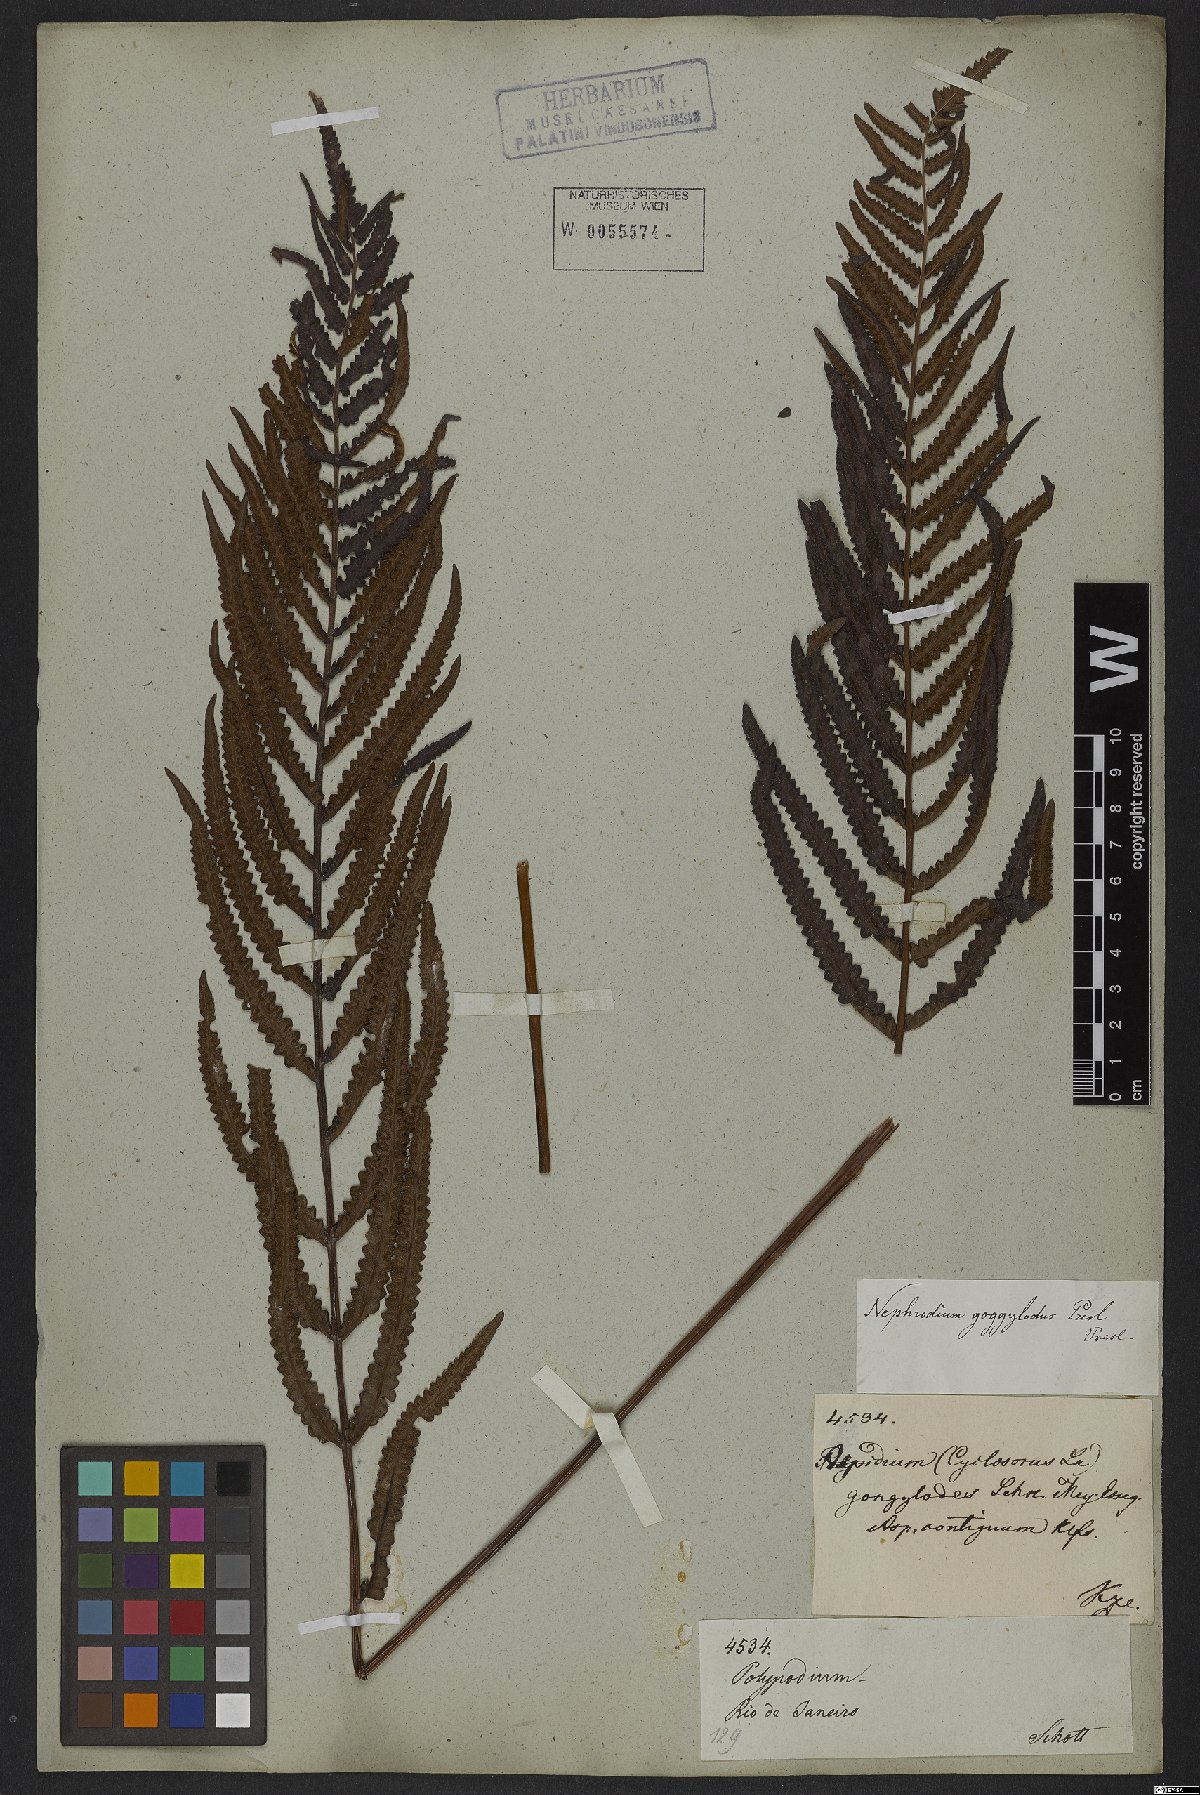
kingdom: Plantae
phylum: Tracheophyta
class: Polypodiopsida
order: Polypodiales
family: Thelypteridaceae
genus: Cyclosorus
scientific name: Cyclosorus interruptus
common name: Neke fern
